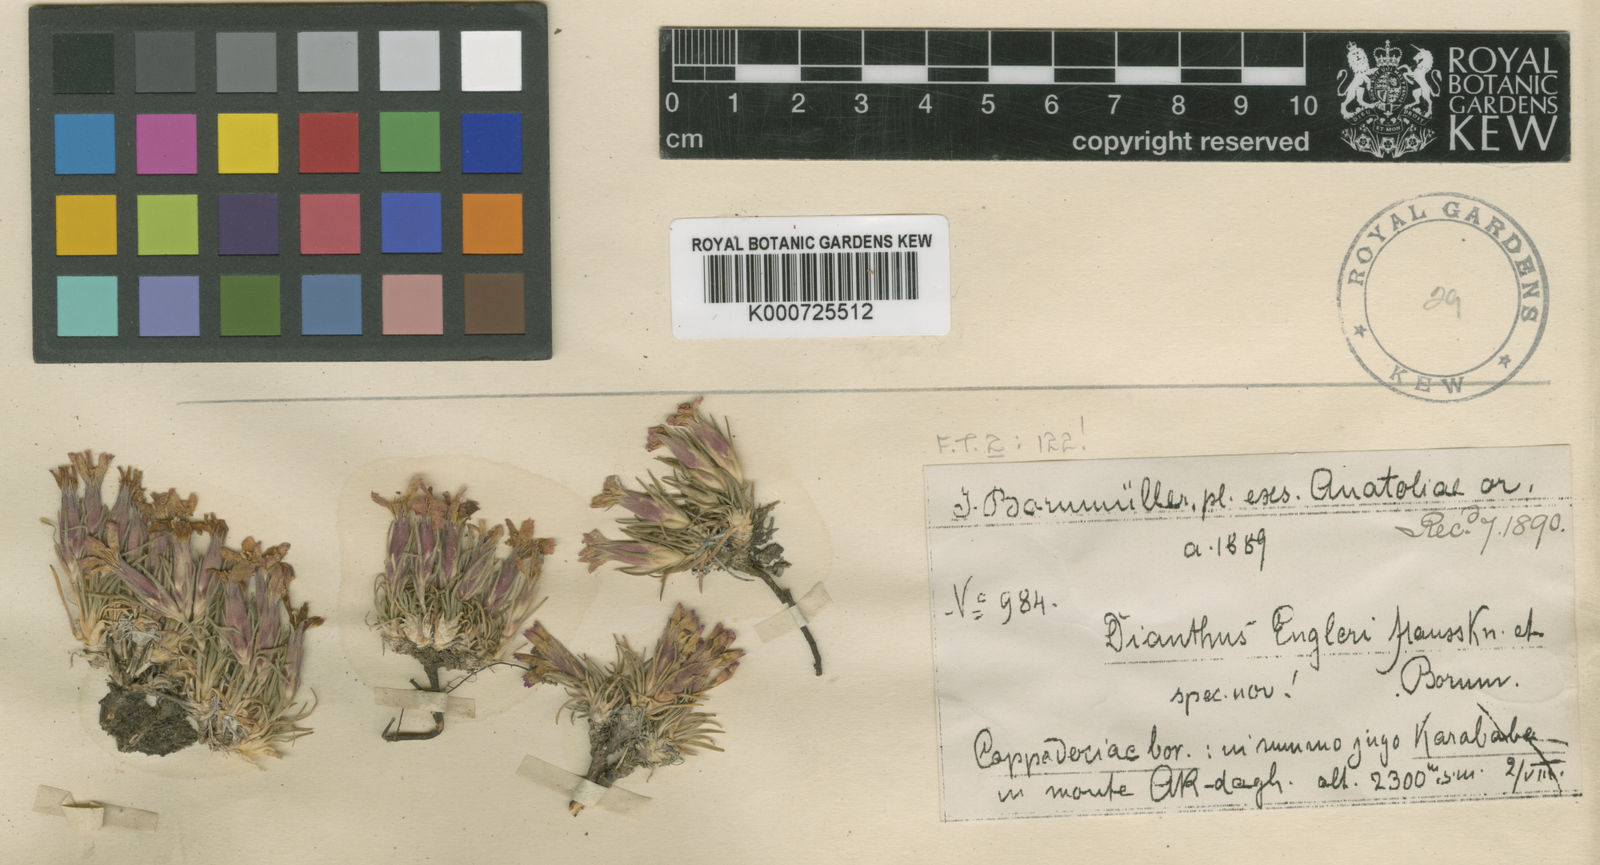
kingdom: Plantae
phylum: Tracheophyta
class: Magnoliopsida
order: Caryophyllales
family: Caryophyllaceae
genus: Dianthus
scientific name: Dianthus engleri
